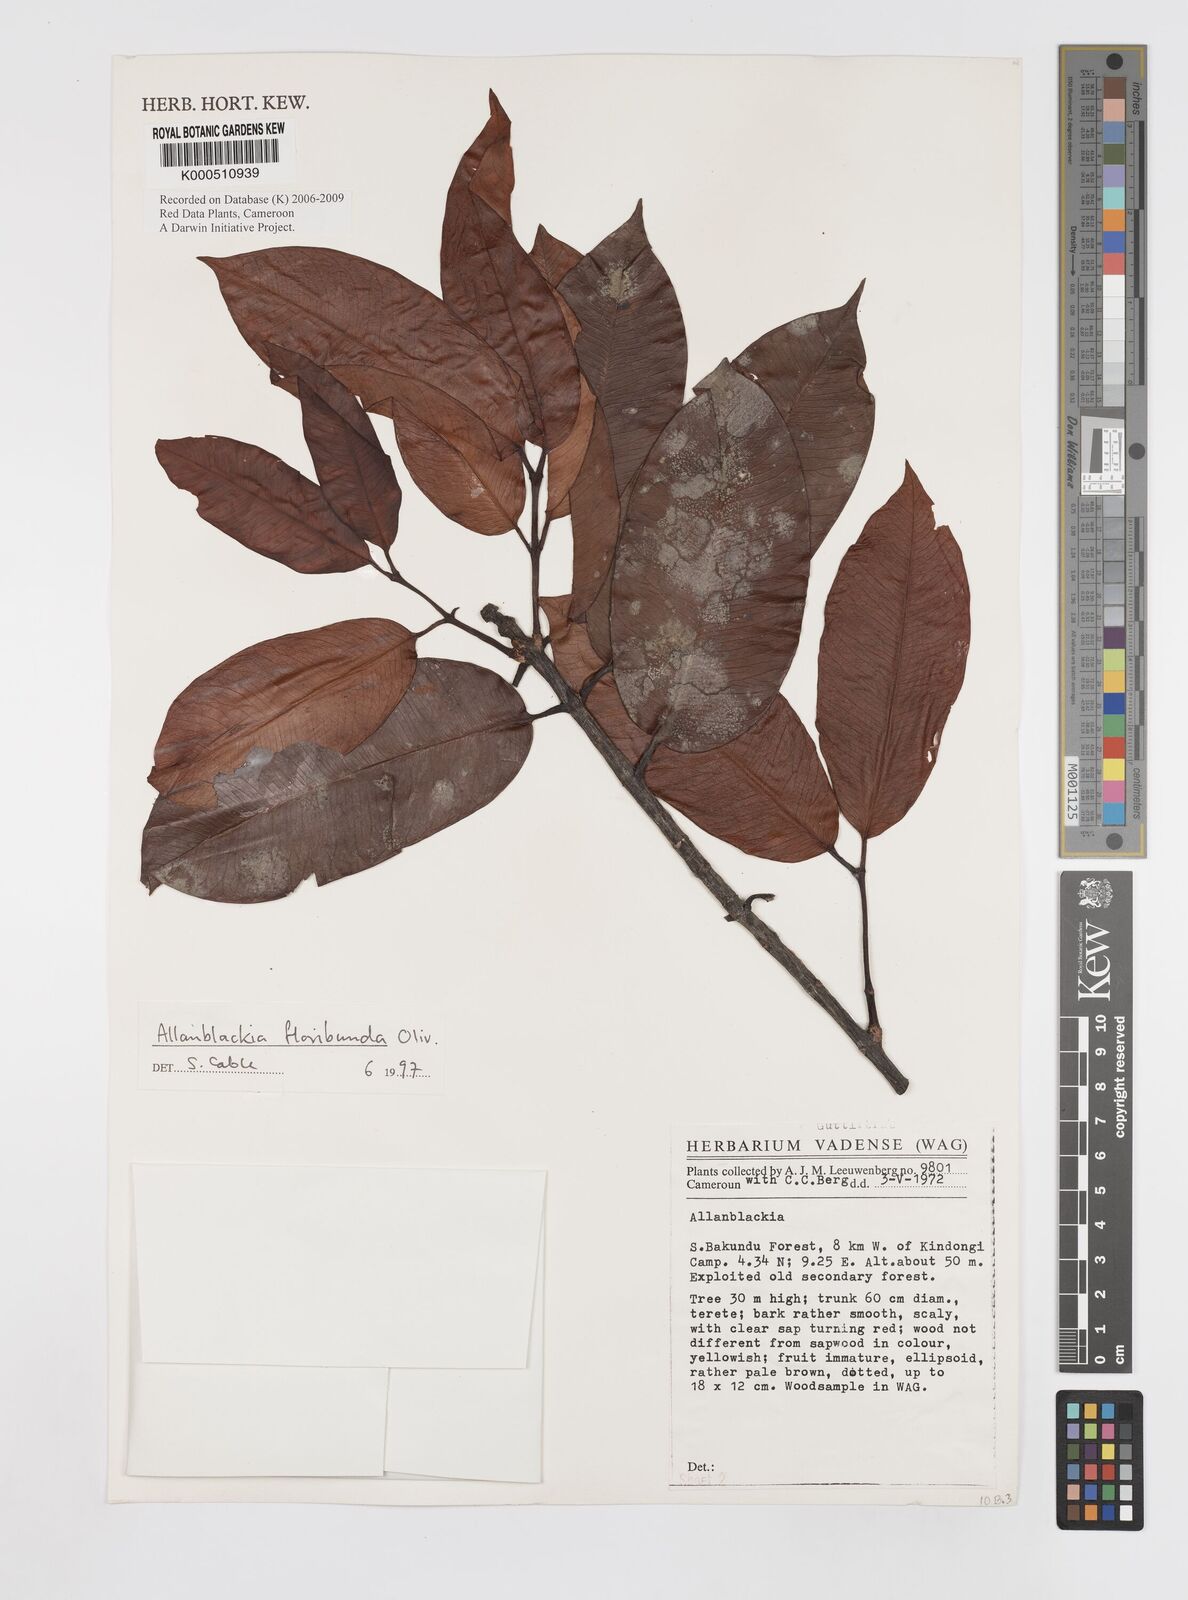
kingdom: Plantae
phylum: Tracheophyta
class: Magnoliopsida
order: Malpighiales
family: Clusiaceae
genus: Allanblackia
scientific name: Allanblackia floribunda
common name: Tallow tree
